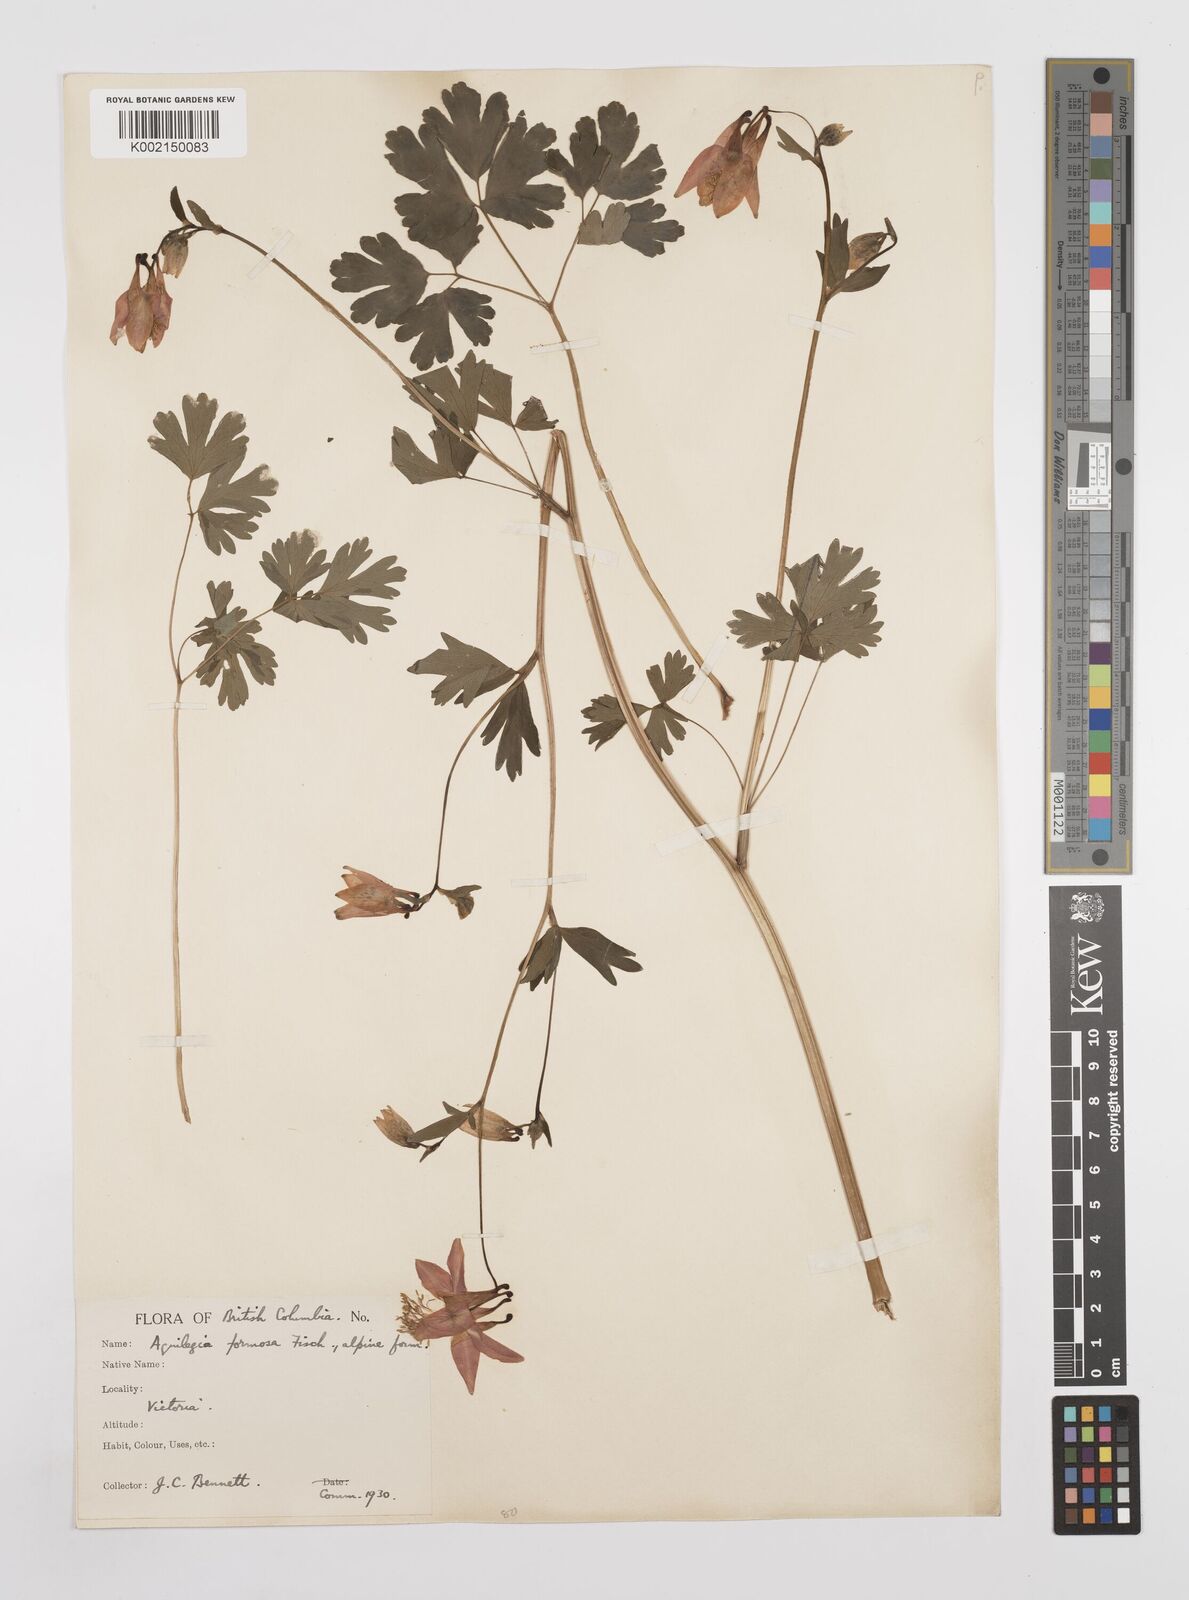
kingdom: Plantae
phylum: Tracheophyta
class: Magnoliopsida
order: Ranunculales
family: Ranunculaceae
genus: Aquilegia
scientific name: Aquilegia
